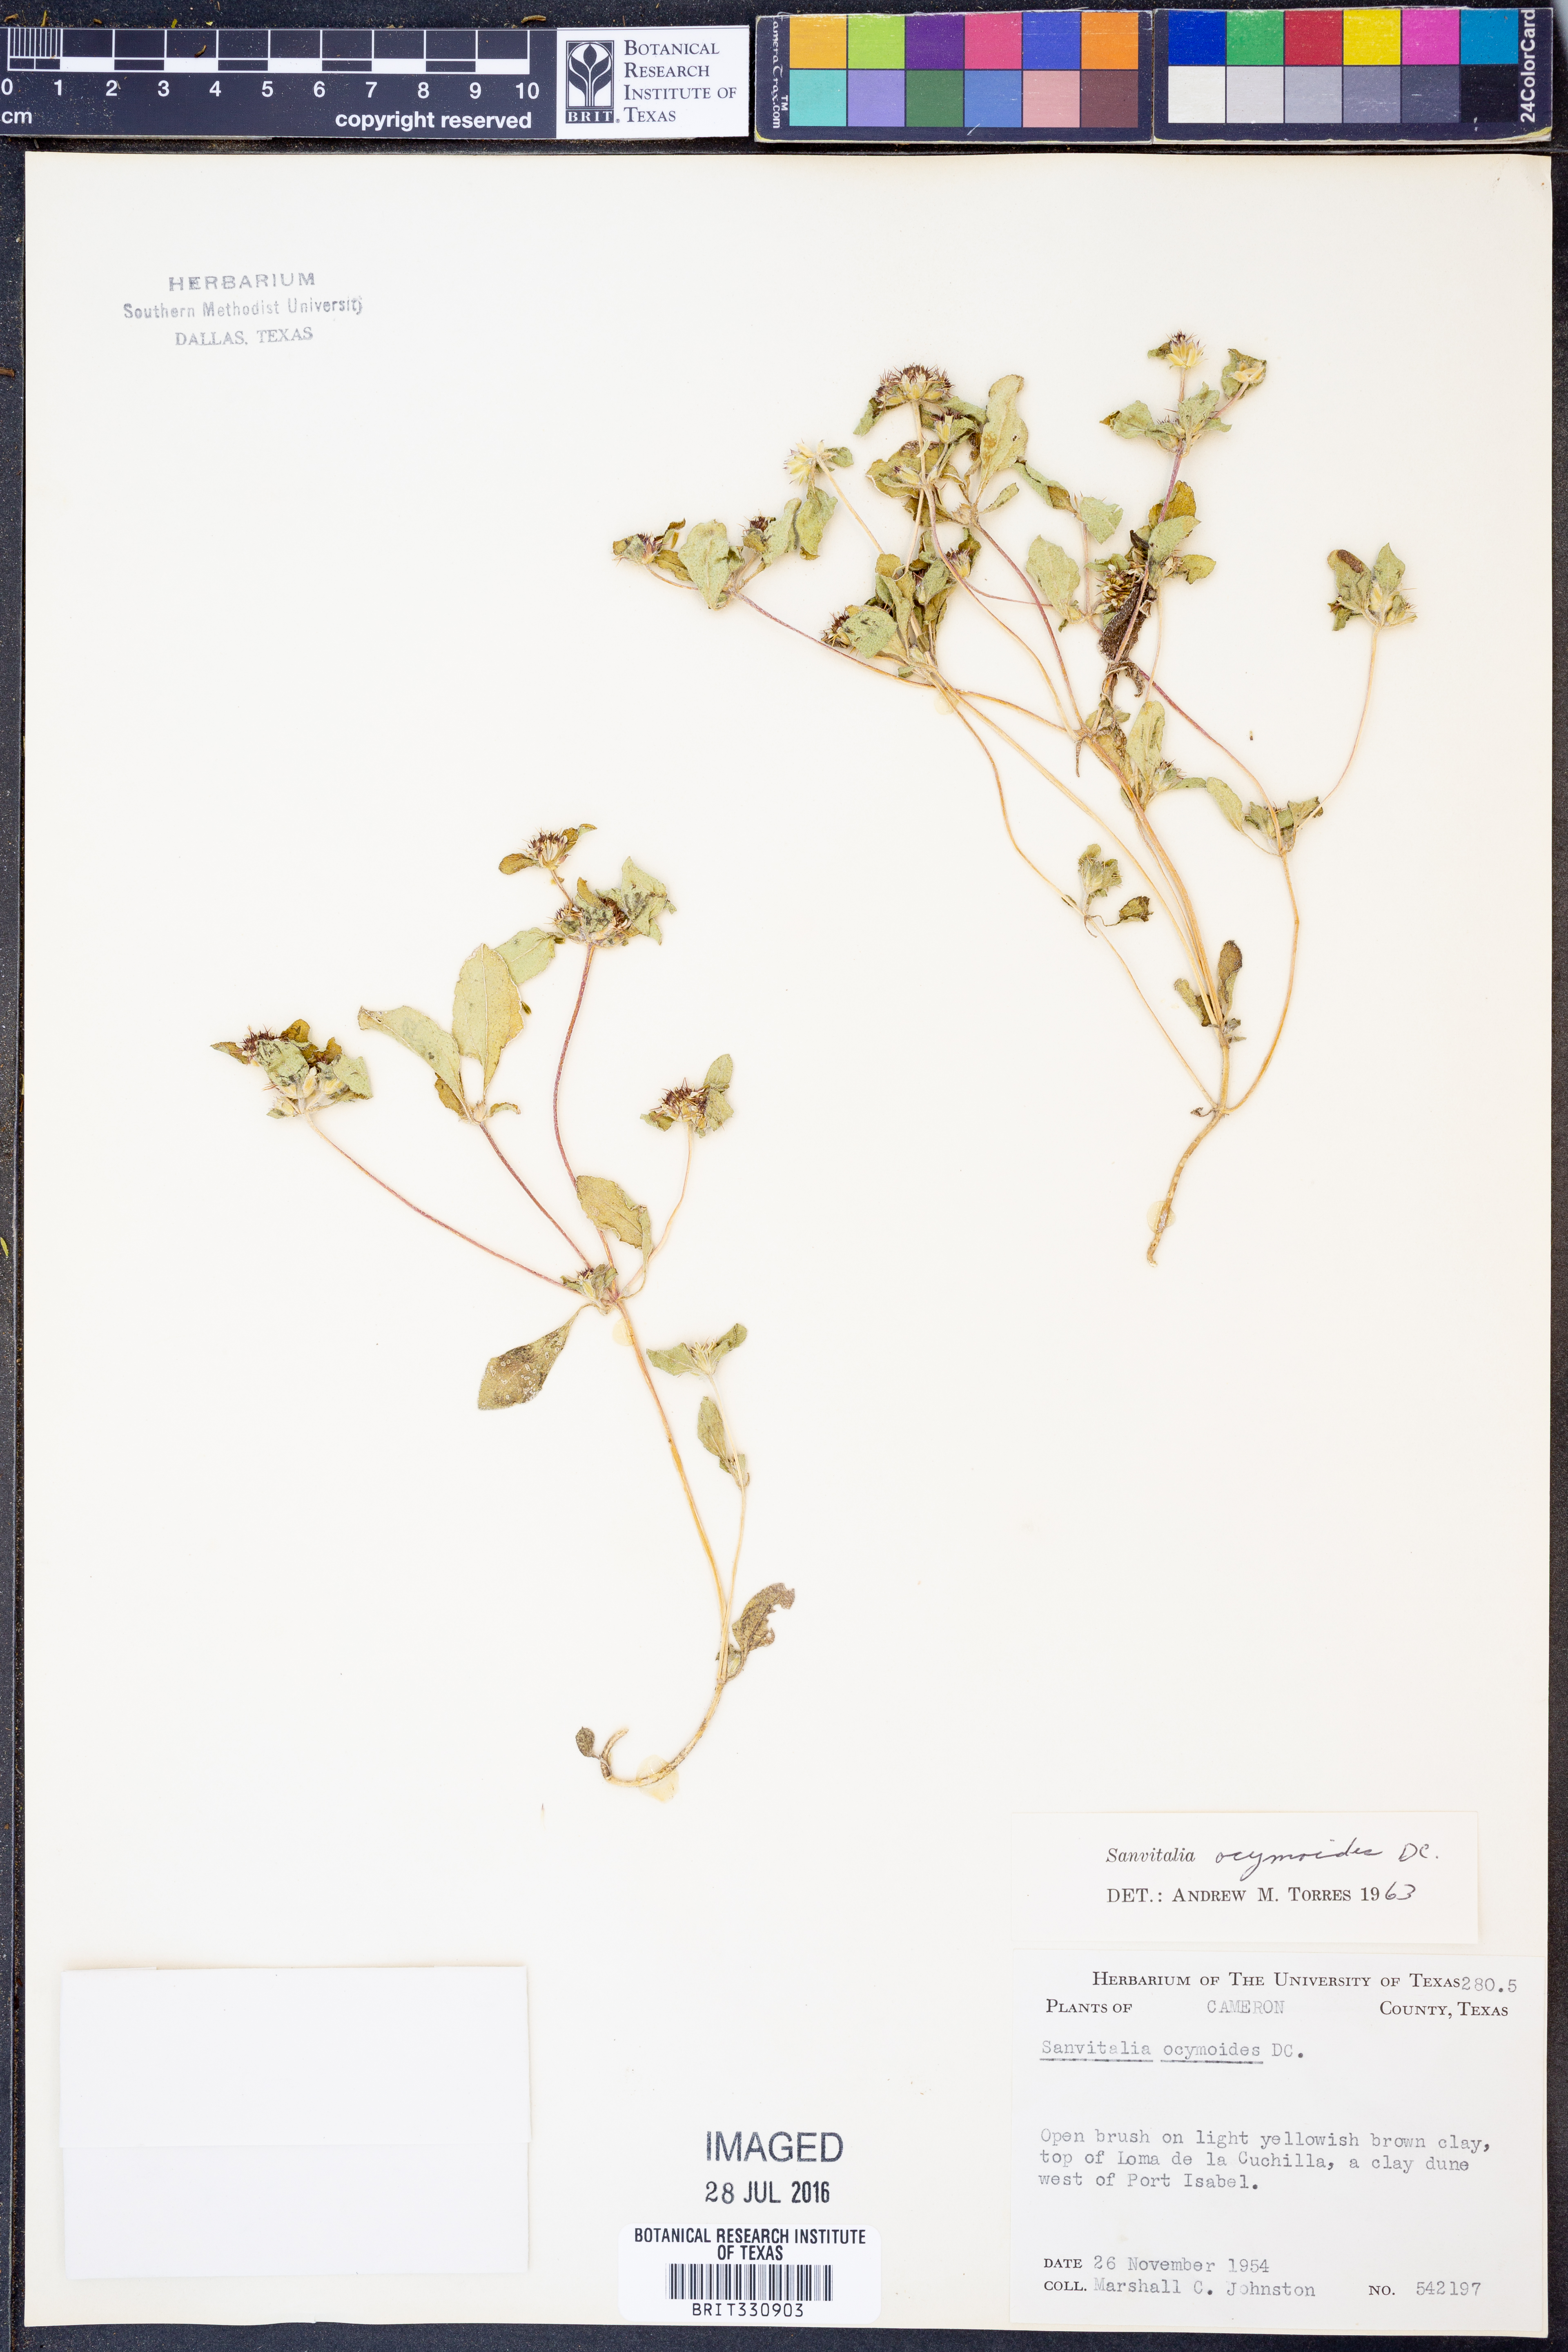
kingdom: Plantae
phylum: Tracheophyta
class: Magnoliopsida
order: Asterales
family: Asteraceae
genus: Sanvitalia
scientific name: Sanvitalia ocymoides
